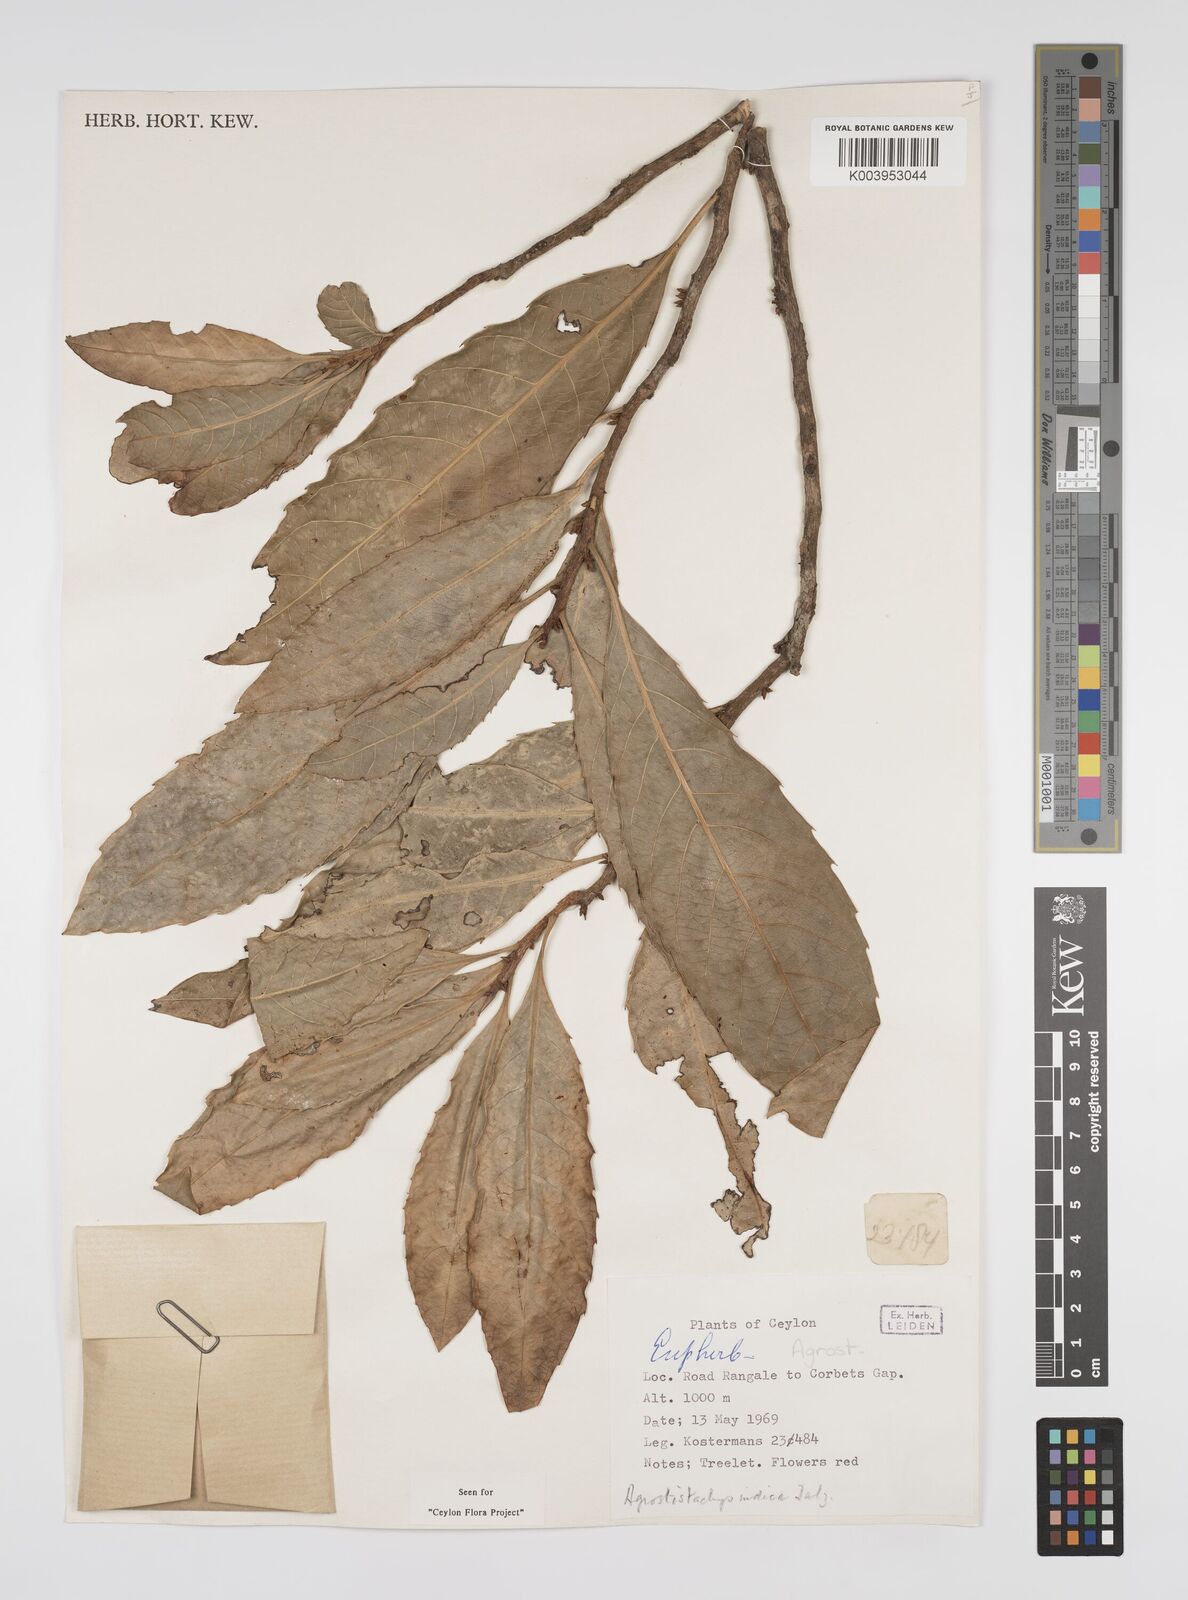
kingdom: Plantae
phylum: Tracheophyta
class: Magnoliopsida
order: Malpighiales
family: Euphorbiaceae
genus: Agrostistachys
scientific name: Agrostistachys indica
